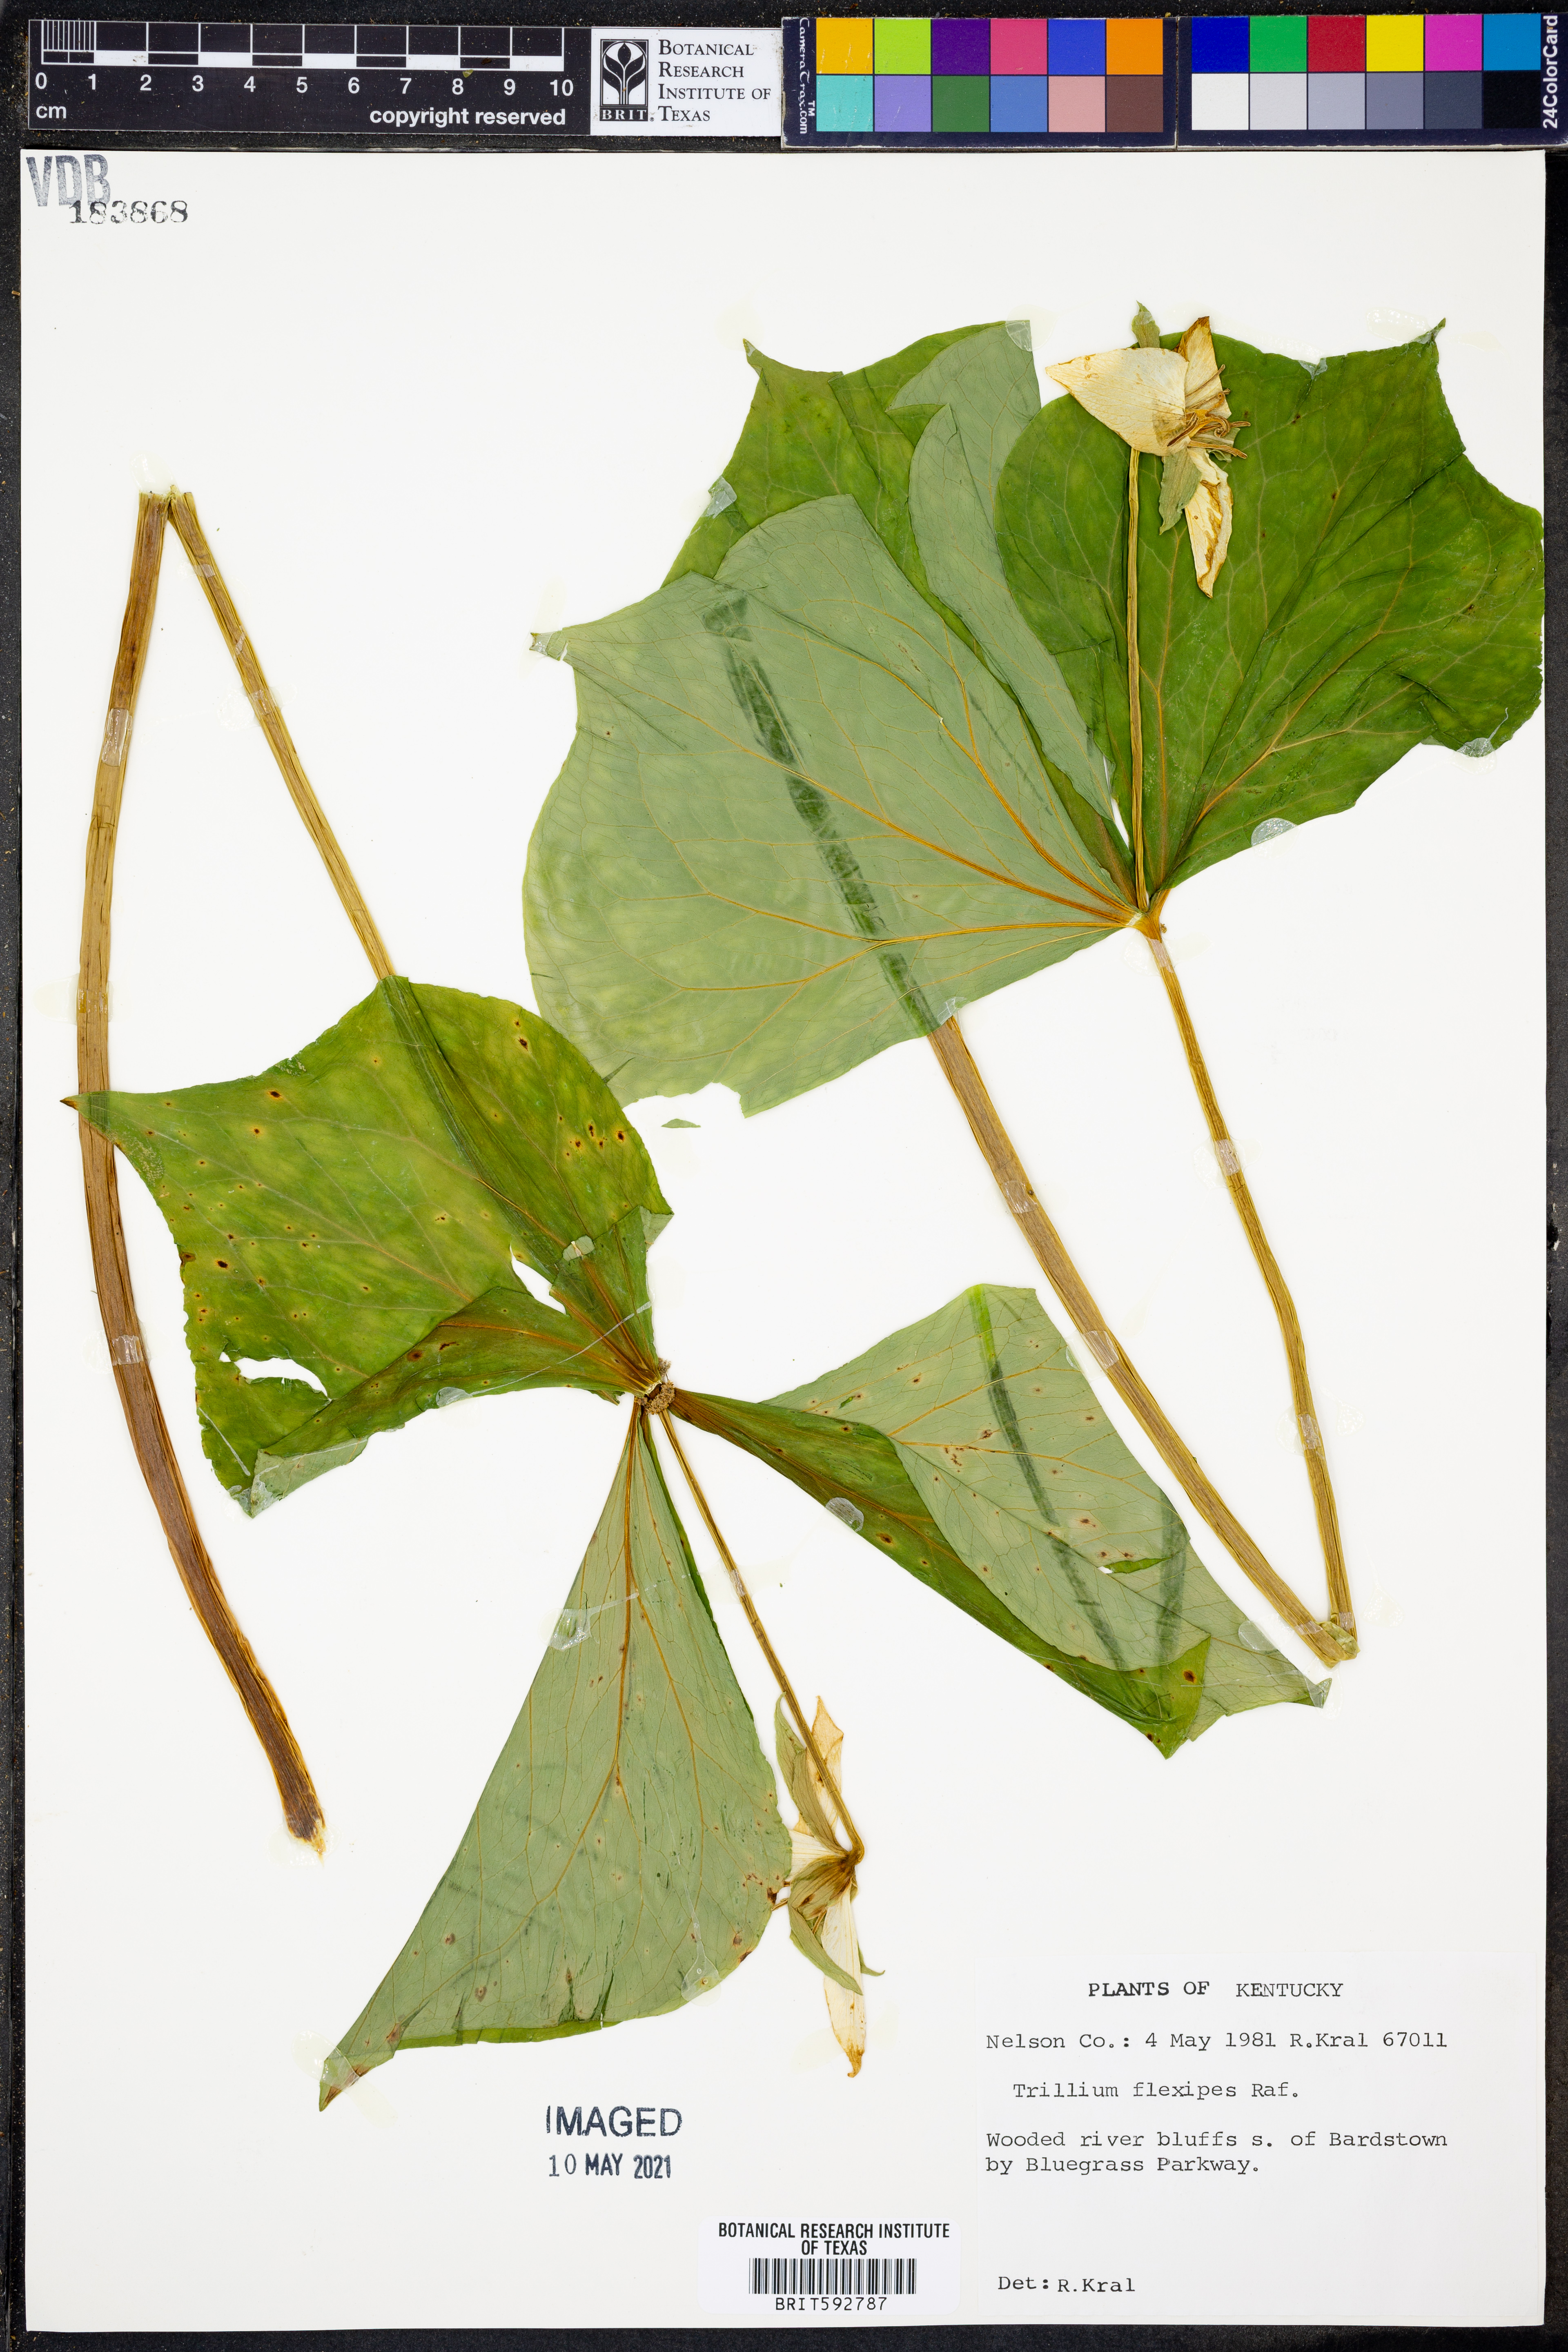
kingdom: Plantae
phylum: Tracheophyta
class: Liliopsida
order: Liliales
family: Melanthiaceae
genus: Trillium
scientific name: Trillium flexipes
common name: Drooping trillium
